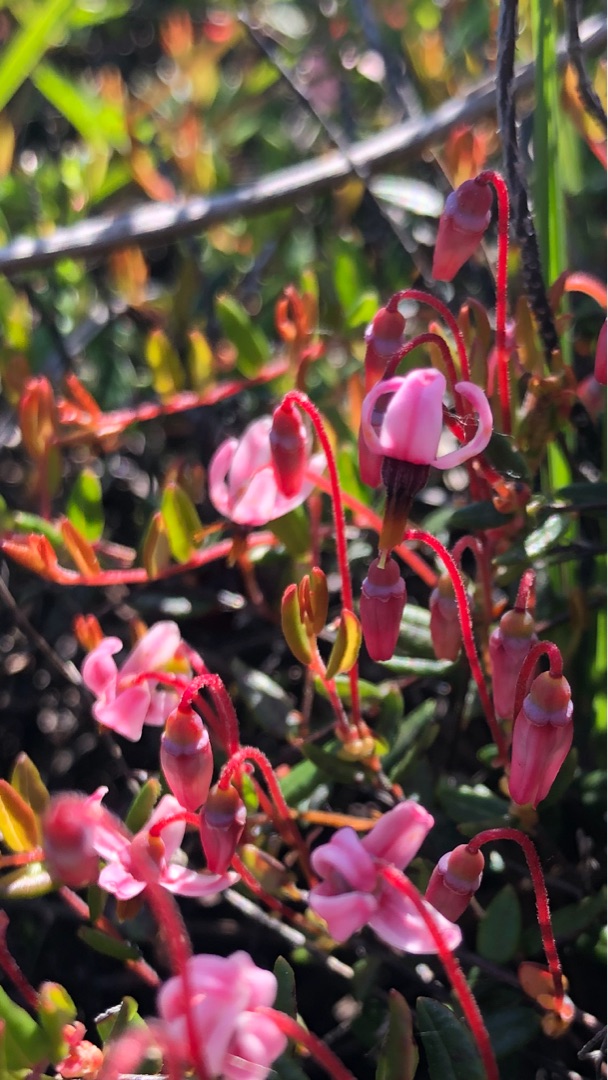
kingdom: Plantae
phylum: Tracheophyta
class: Magnoliopsida
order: Ericales
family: Ericaceae
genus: Vaccinium
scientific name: Vaccinium oxycoccos
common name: Tranebær
